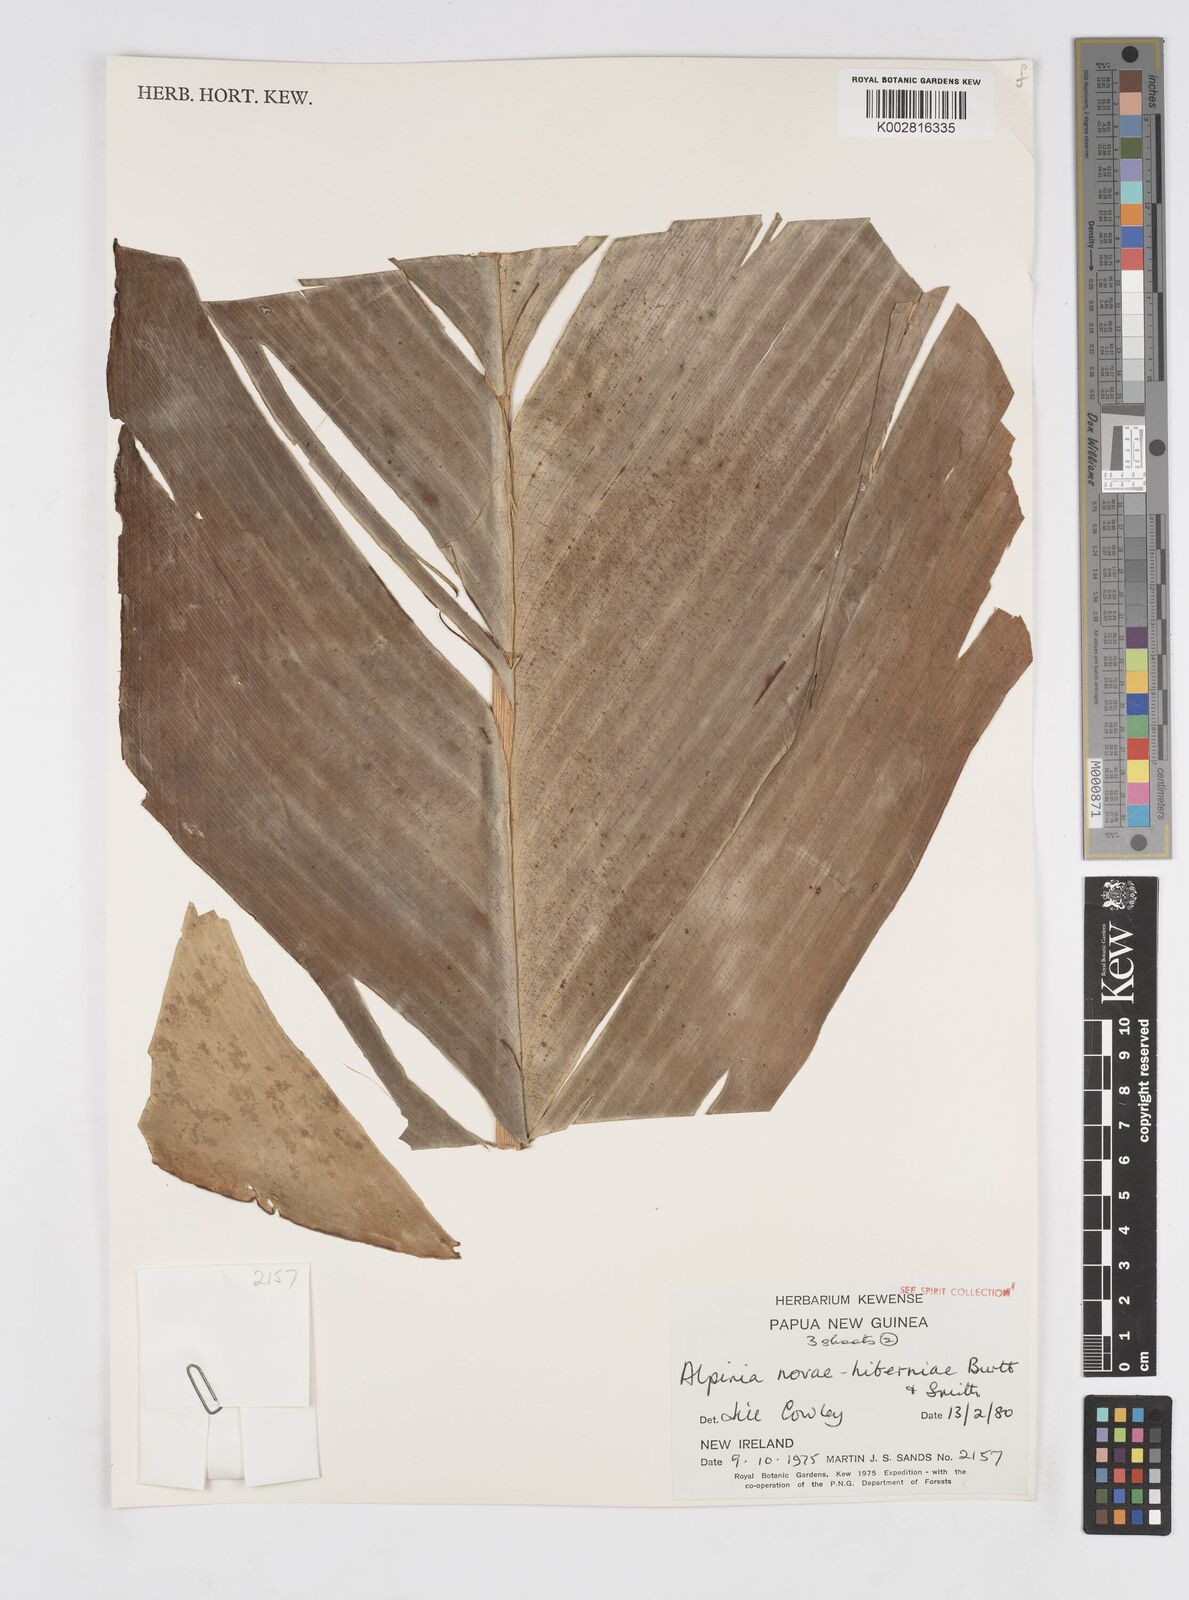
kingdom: Plantae
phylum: Tracheophyta
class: Liliopsida
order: Zingiberales
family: Zingiberaceae
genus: Alpinia
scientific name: Alpinia novae-hiberniae
